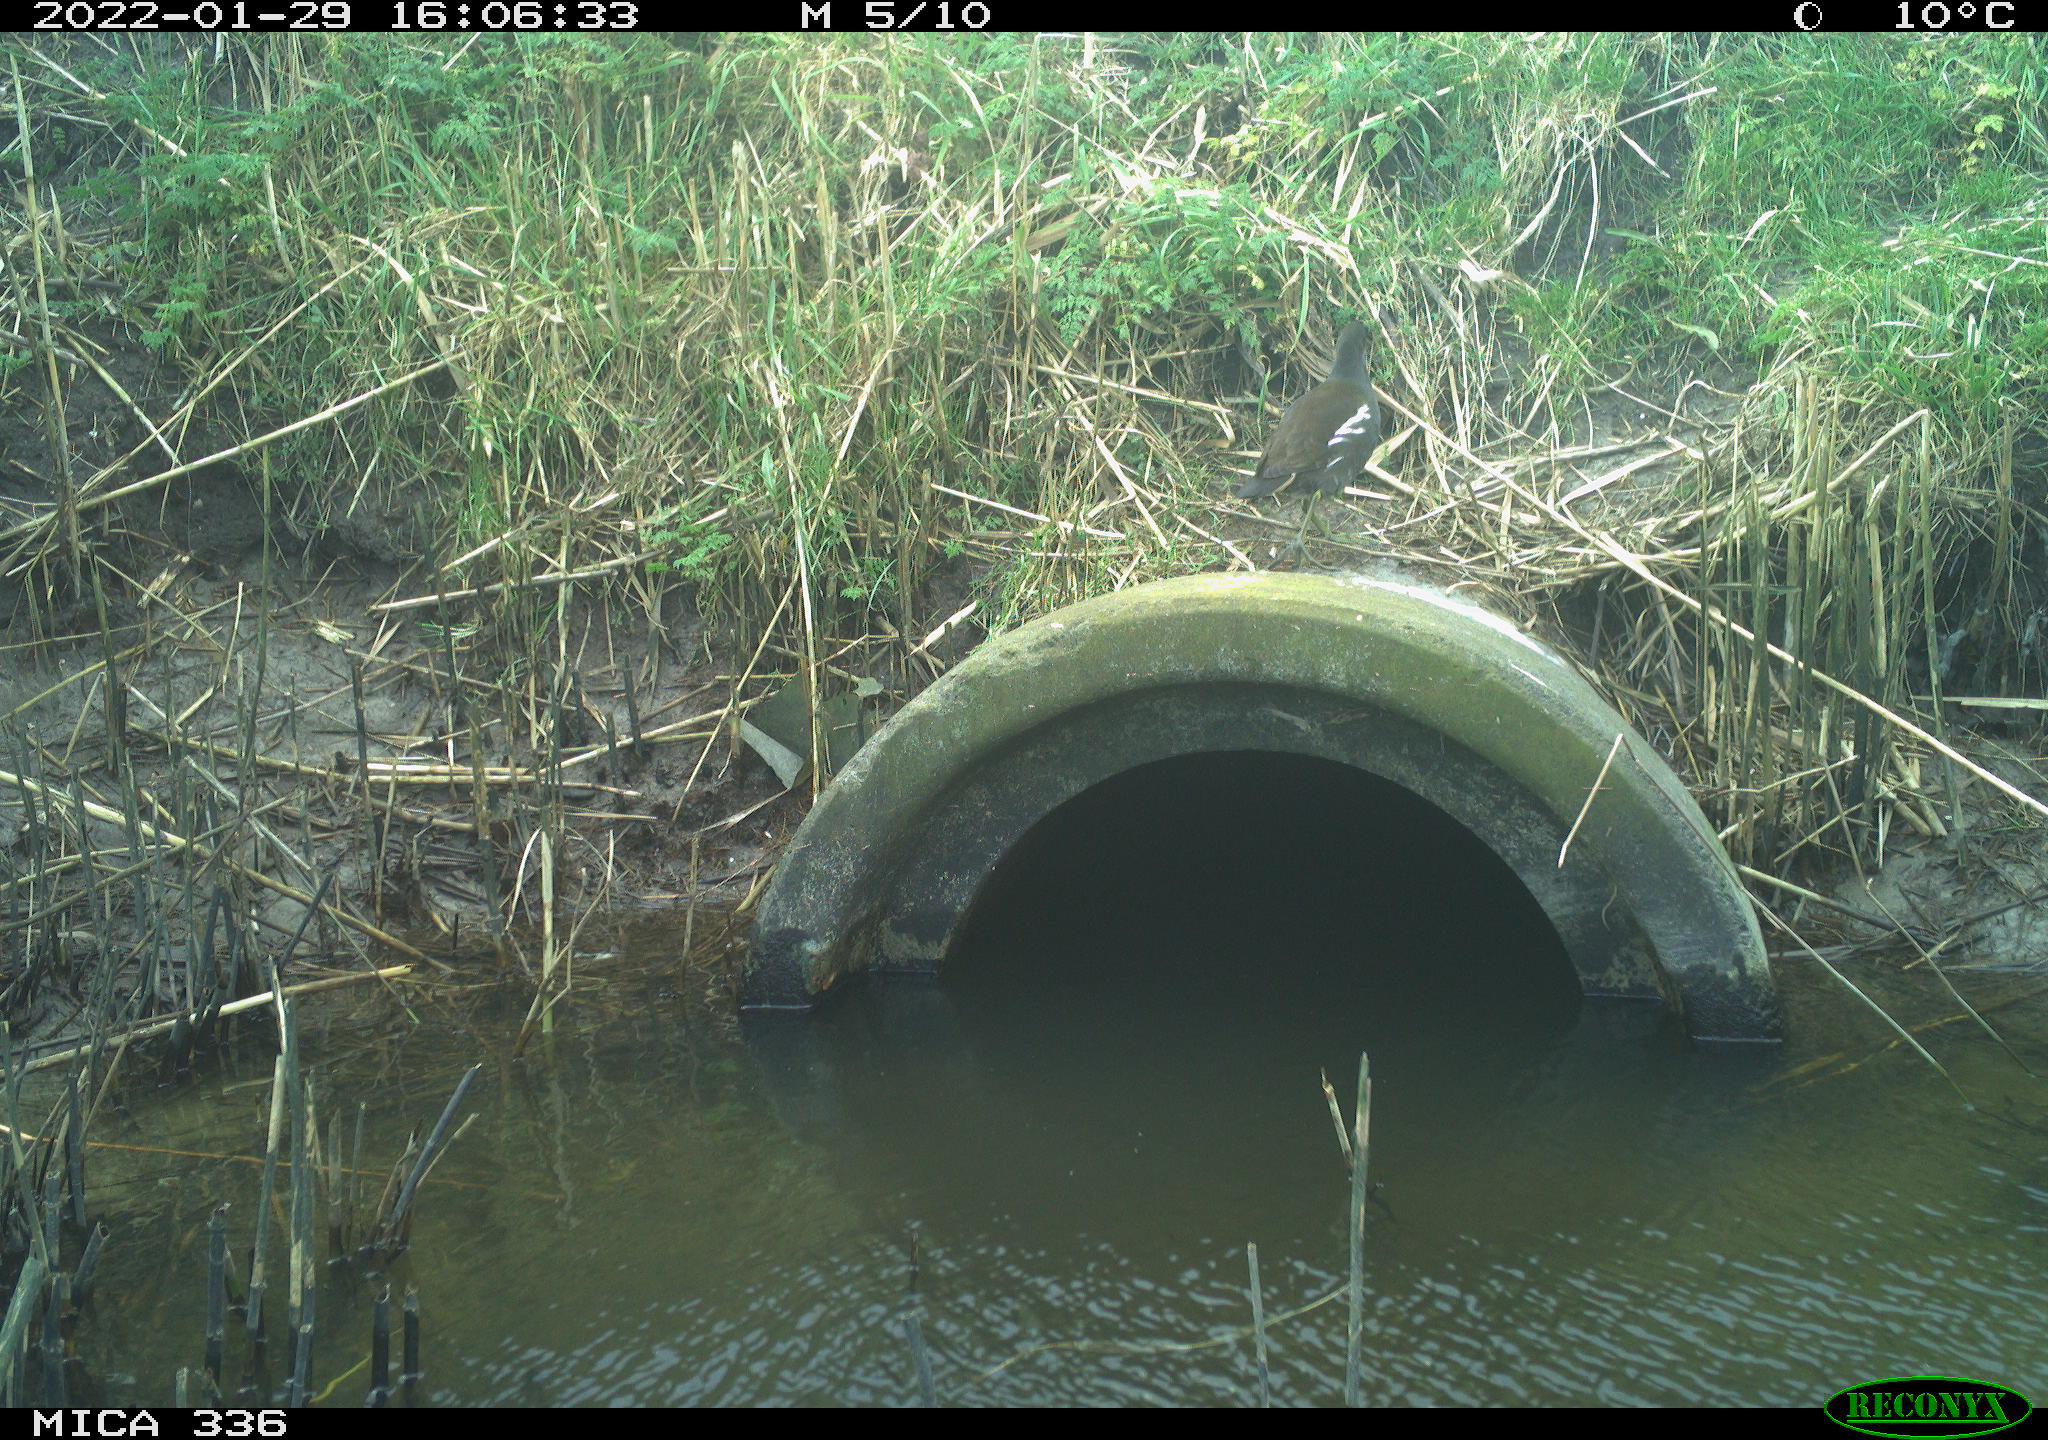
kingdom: Animalia
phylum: Chordata
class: Aves
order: Gruiformes
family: Rallidae
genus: Gallinula
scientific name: Gallinula chloropus
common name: Common moorhen
